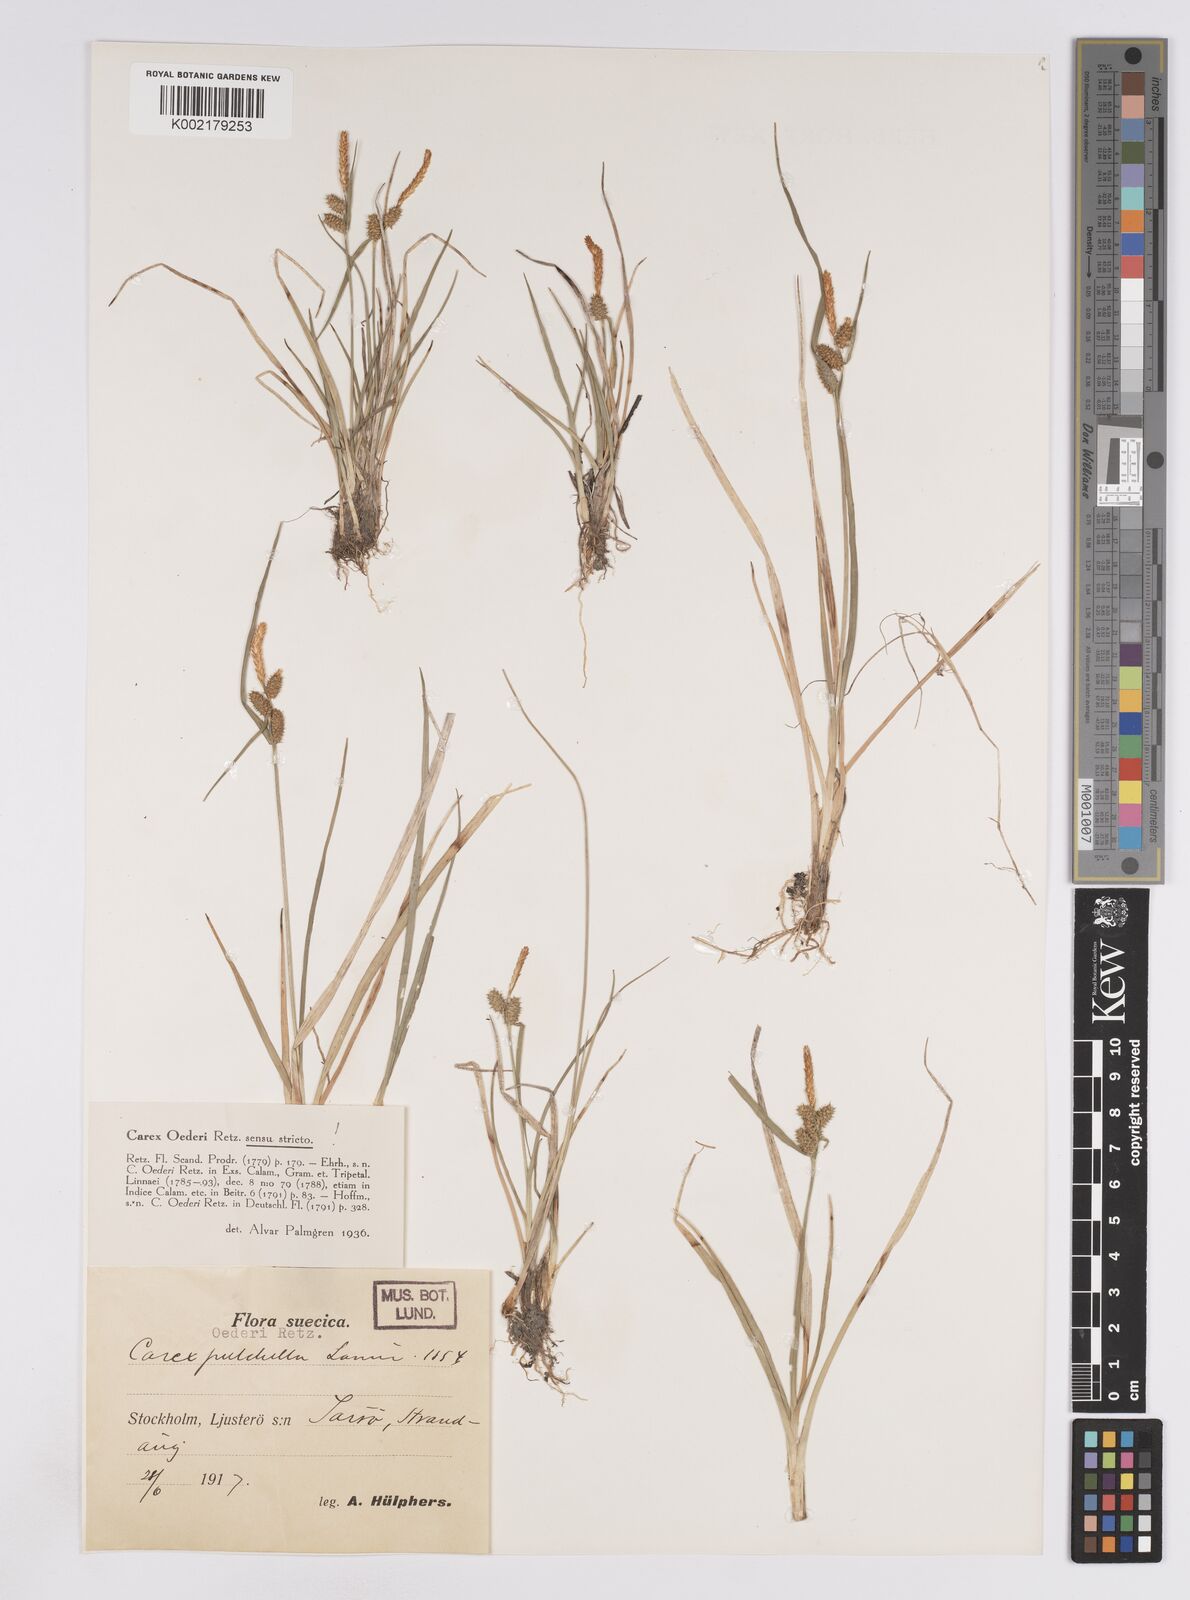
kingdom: Plantae
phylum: Tracheophyta
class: Liliopsida
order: Poales
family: Cyperaceae
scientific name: Cyperaceae
